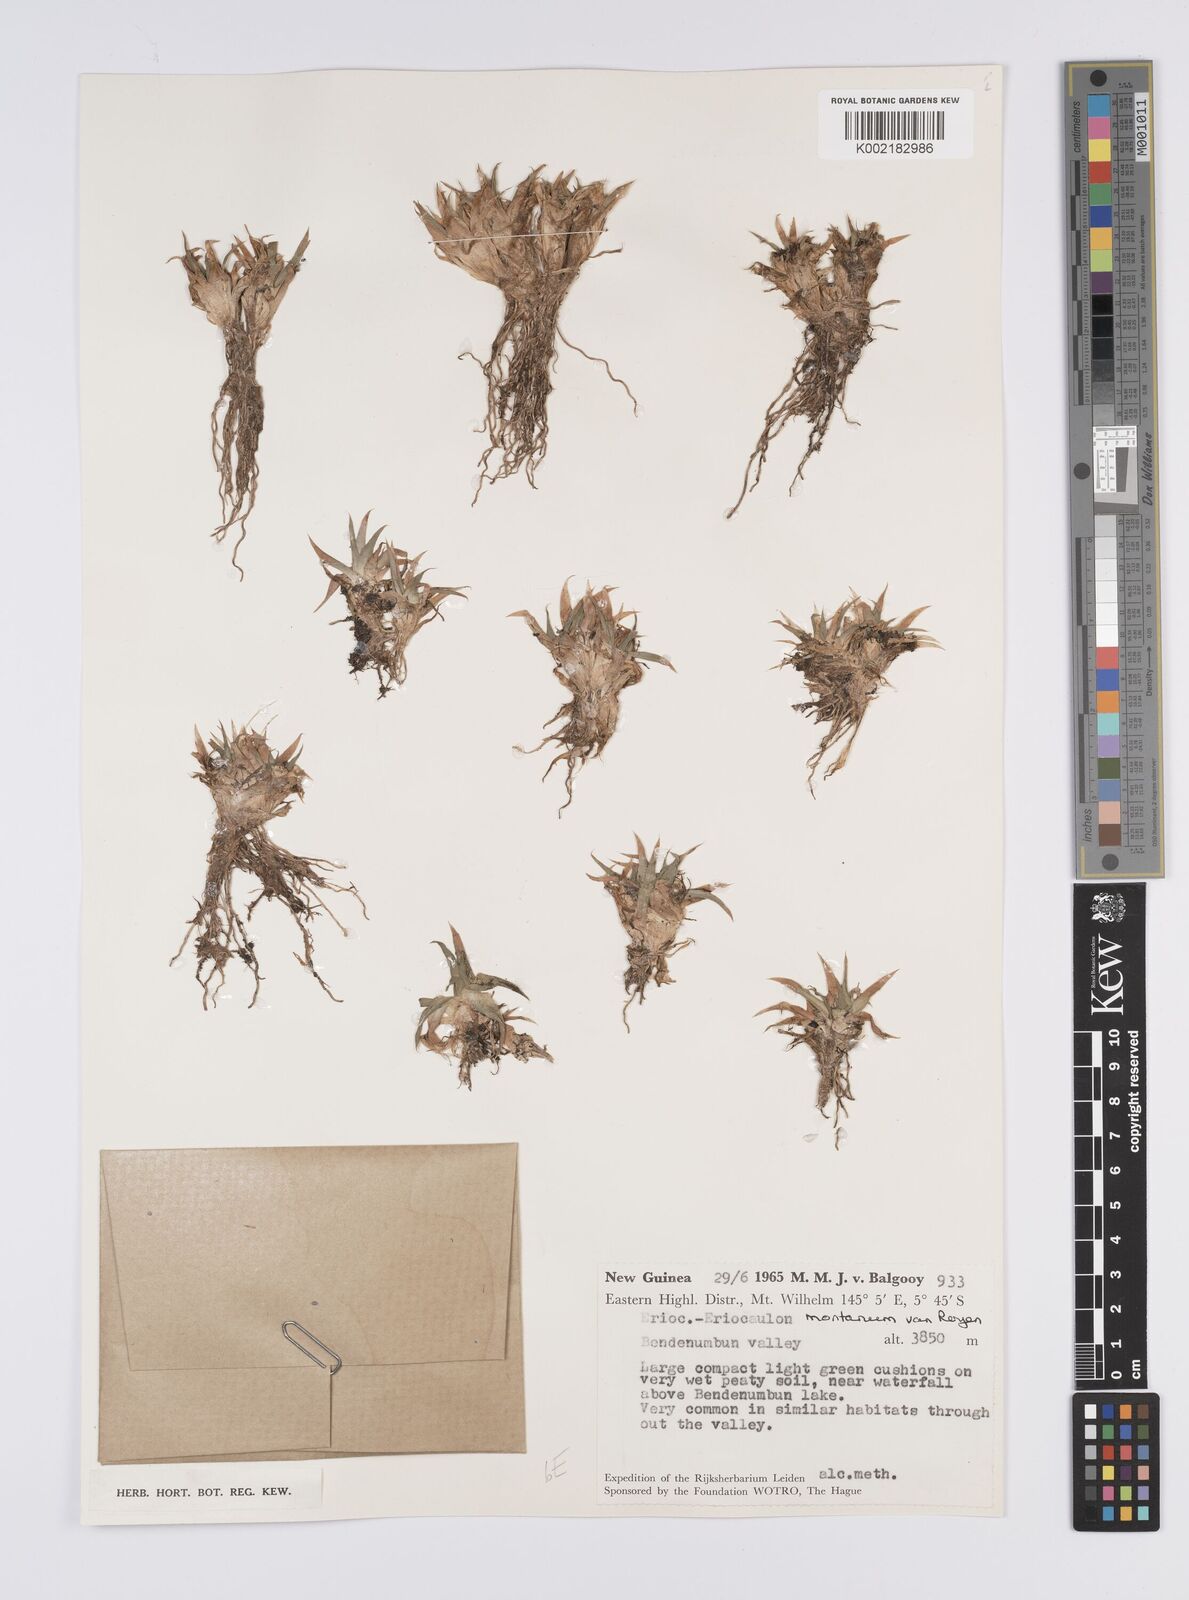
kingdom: Plantae
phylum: Tracheophyta
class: Liliopsida
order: Poales
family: Eriocaulaceae
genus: Eriocaulon
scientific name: Eriocaulon montanum
